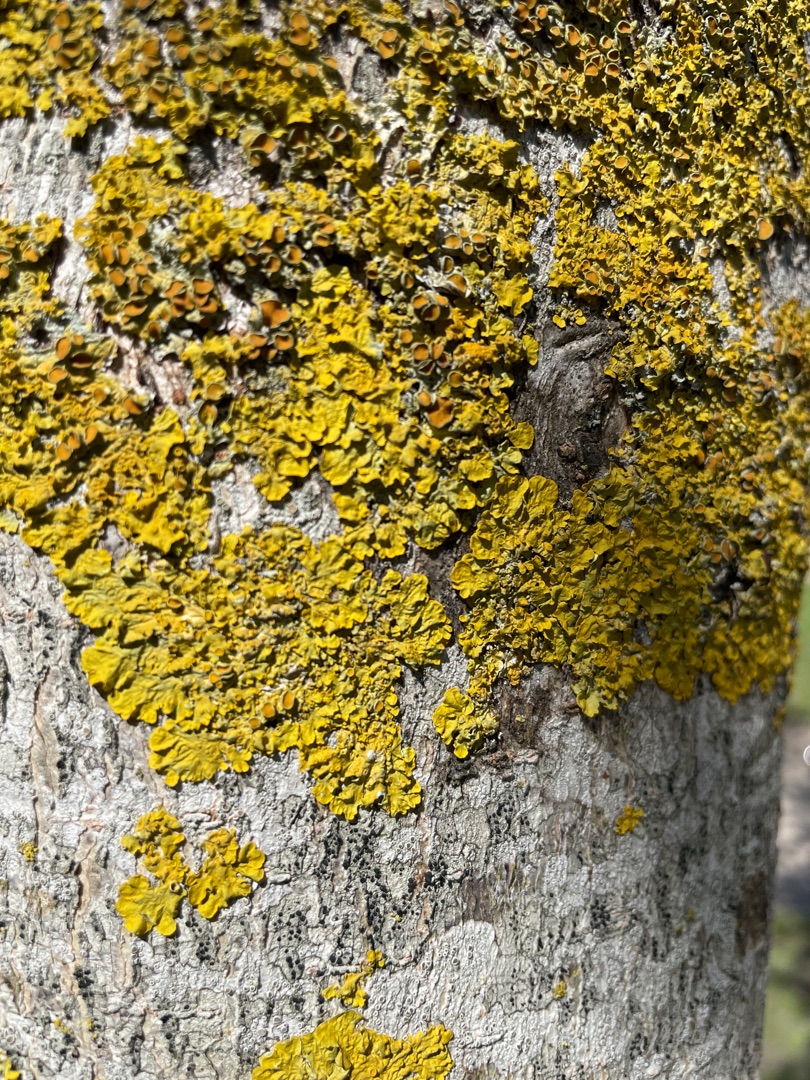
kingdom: Fungi
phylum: Ascomycota
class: Lecanoromycetes
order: Teloschistales
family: Teloschistaceae
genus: Xanthoria
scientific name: Xanthoria parietina
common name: Almindelig væggelav
